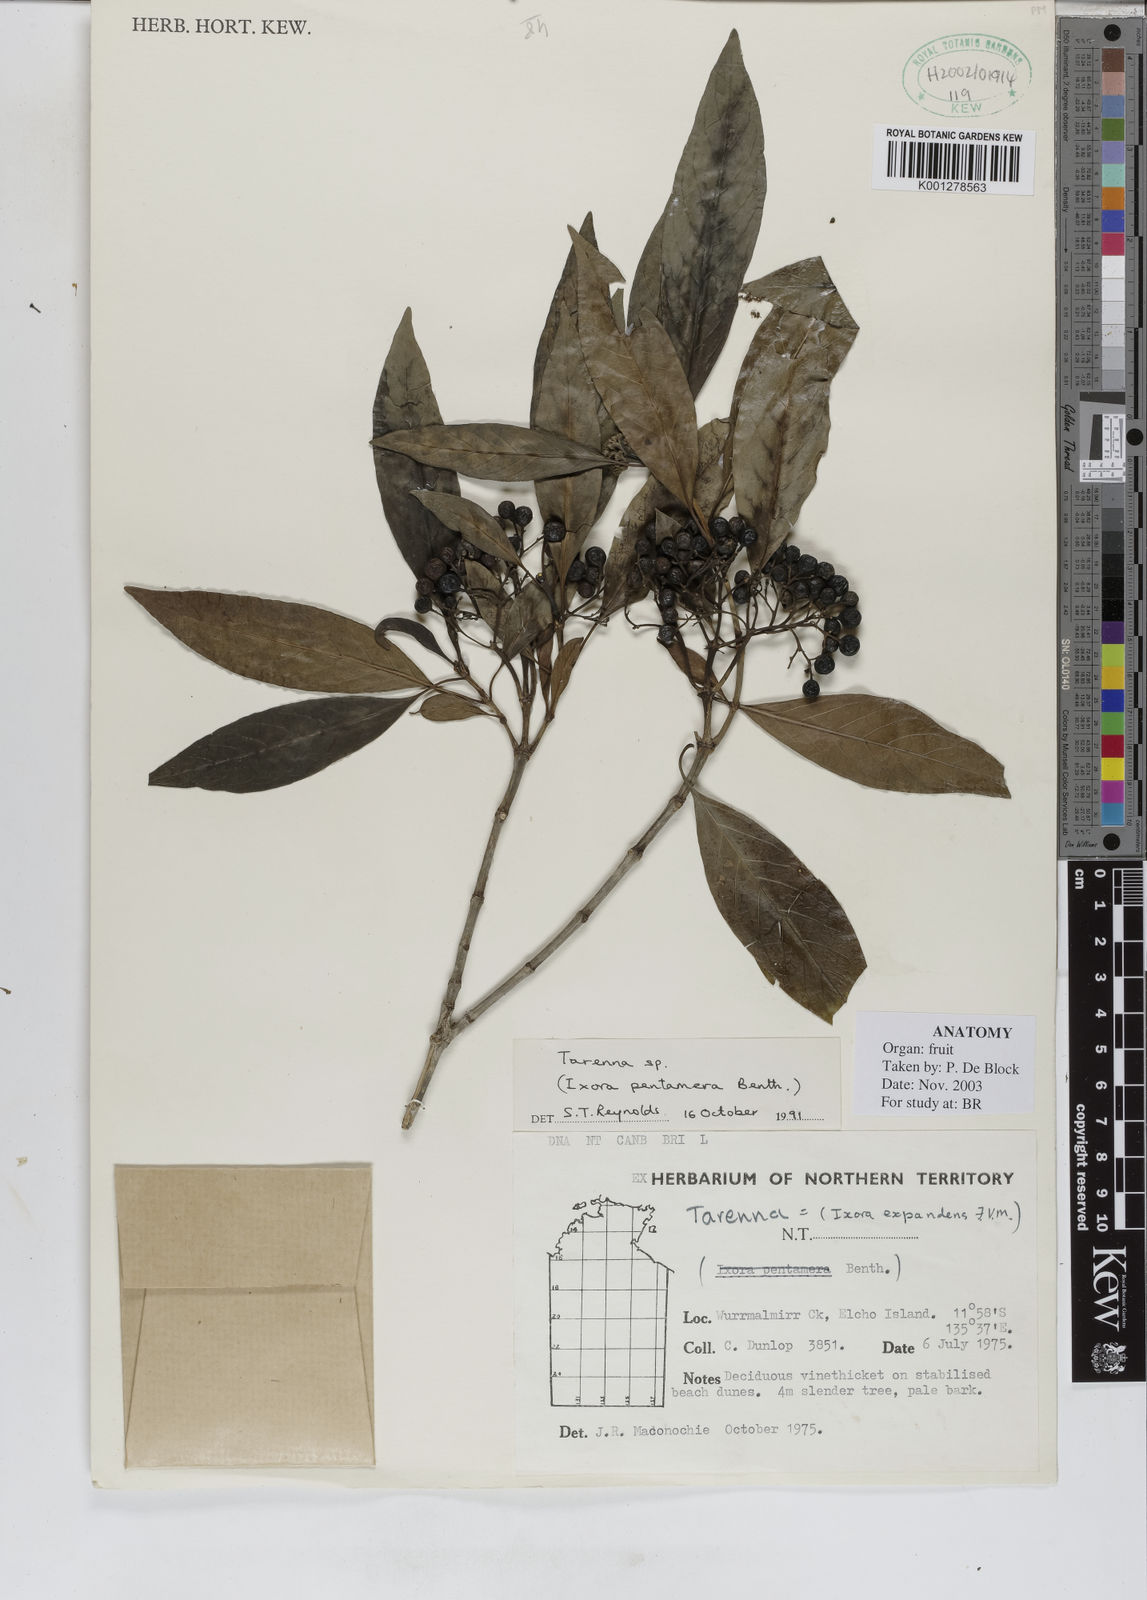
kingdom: Plantae
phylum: Tracheophyta
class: Magnoliopsida
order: Gentianales
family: Rubiaceae
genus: Tarenna
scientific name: Tarenna
